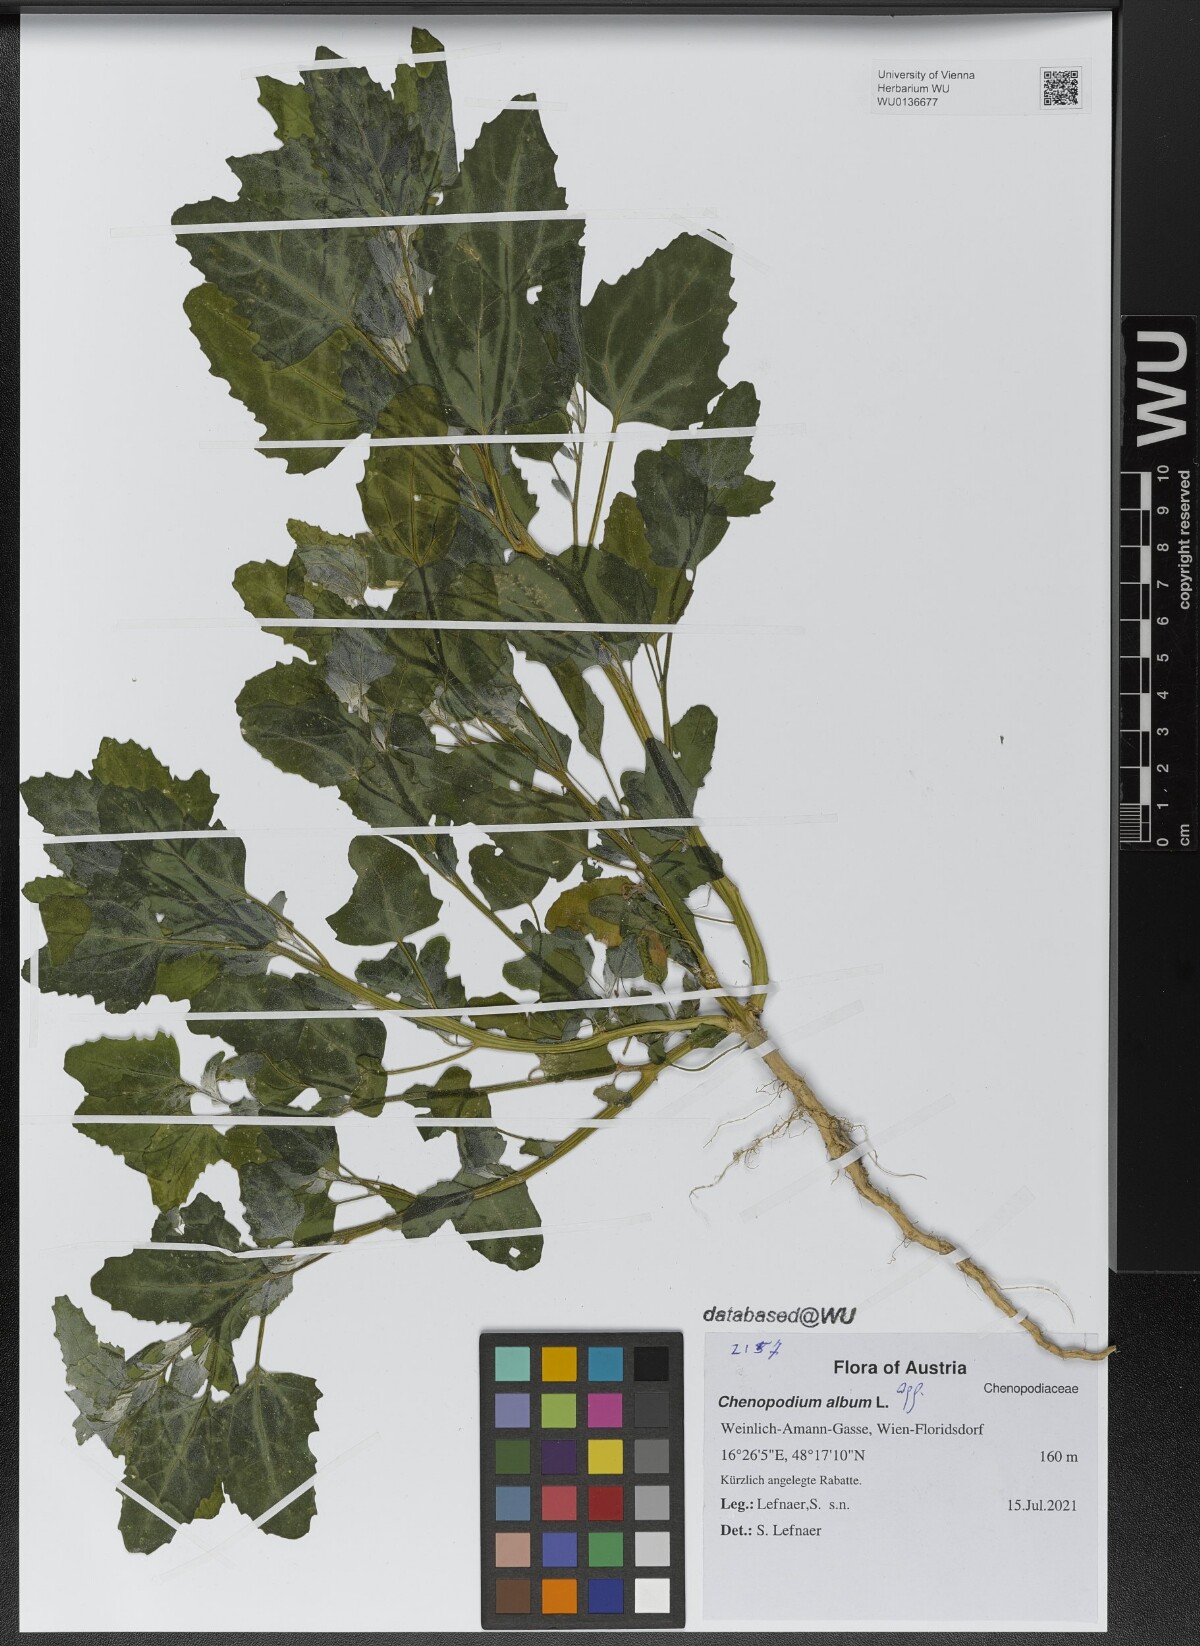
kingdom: Plantae
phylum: Tracheophyta
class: Magnoliopsida
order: Caryophyllales
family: Amaranthaceae
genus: Chenopodium
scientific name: Chenopodium album
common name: Fat-hen
